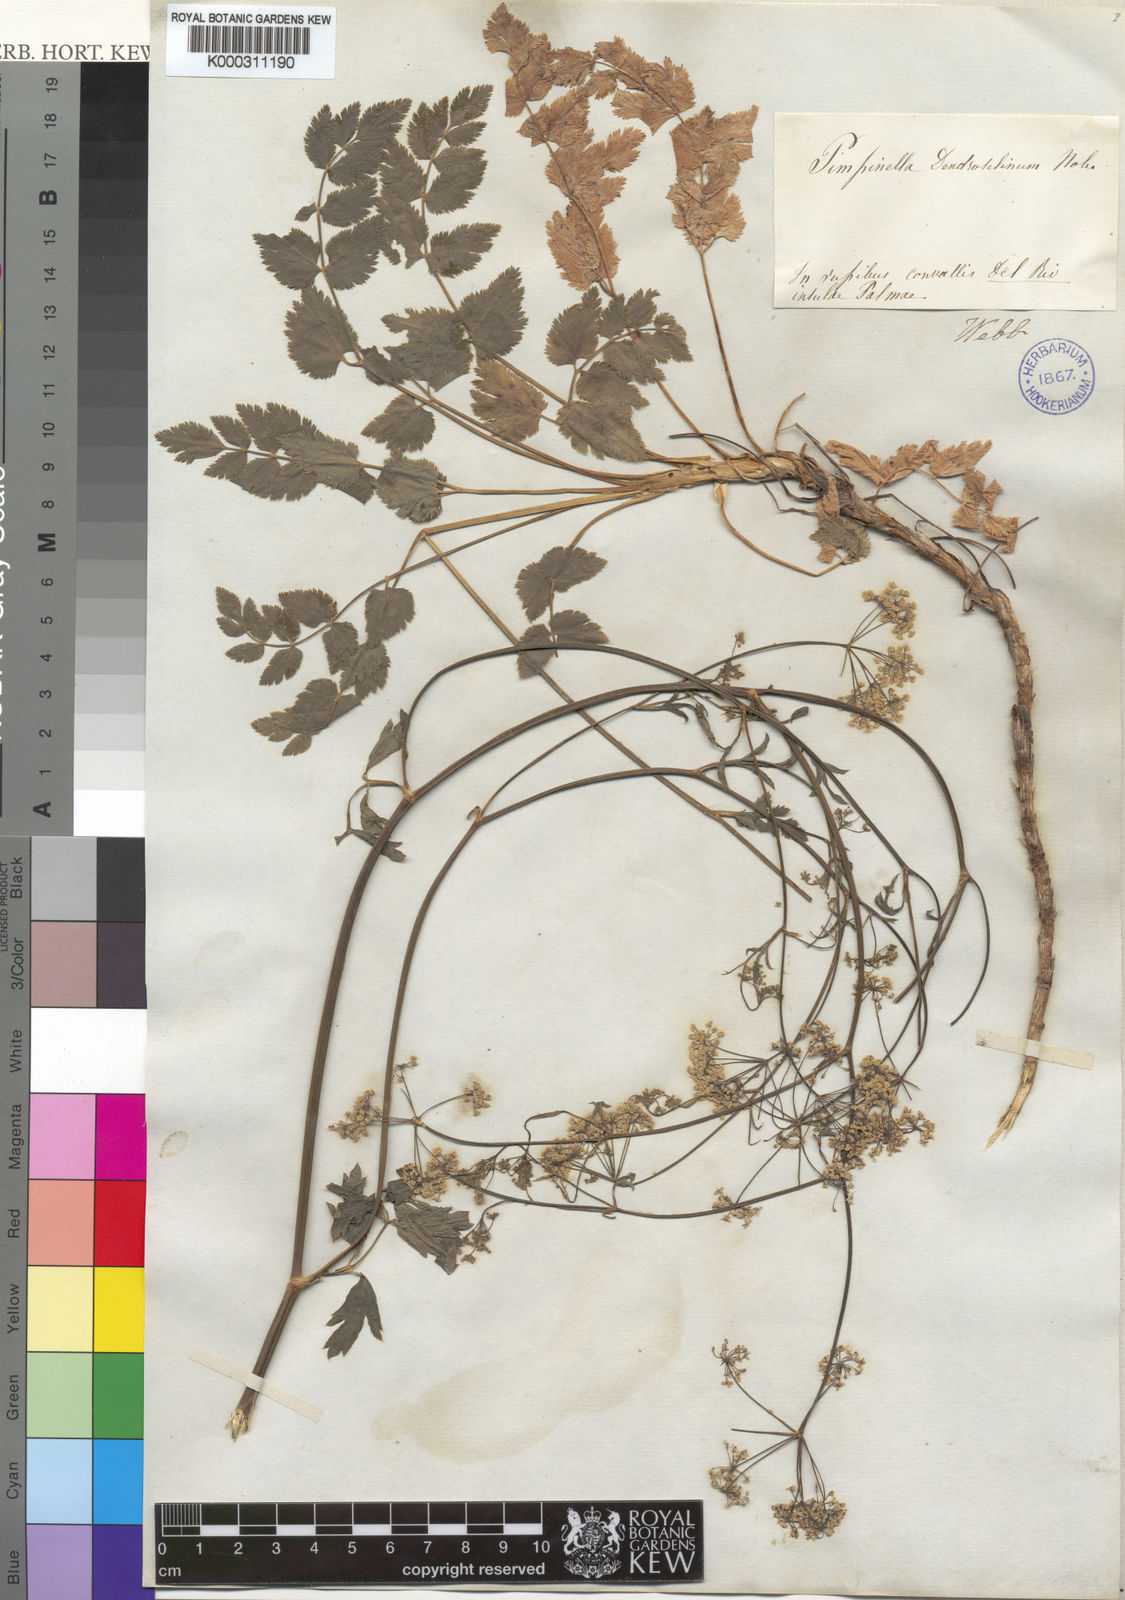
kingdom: Plantae
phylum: Tracheophyta
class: Magnoliopsida
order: Apiales
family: Apiaceae
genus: Pimpinella
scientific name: Pimpinella
